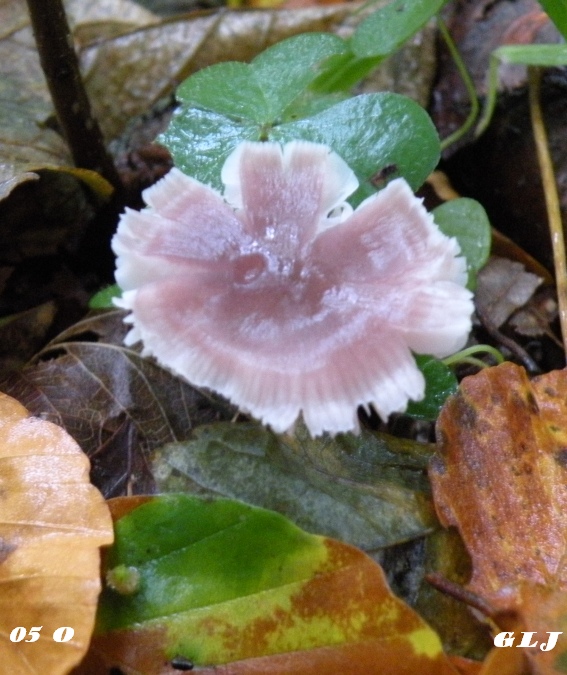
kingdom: Fungi
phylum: Basidiomycota
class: Agaricomycetes
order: Agaricales
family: Mycenaceae
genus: Mycena
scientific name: Mycena rosea
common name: rosa huesvamp
